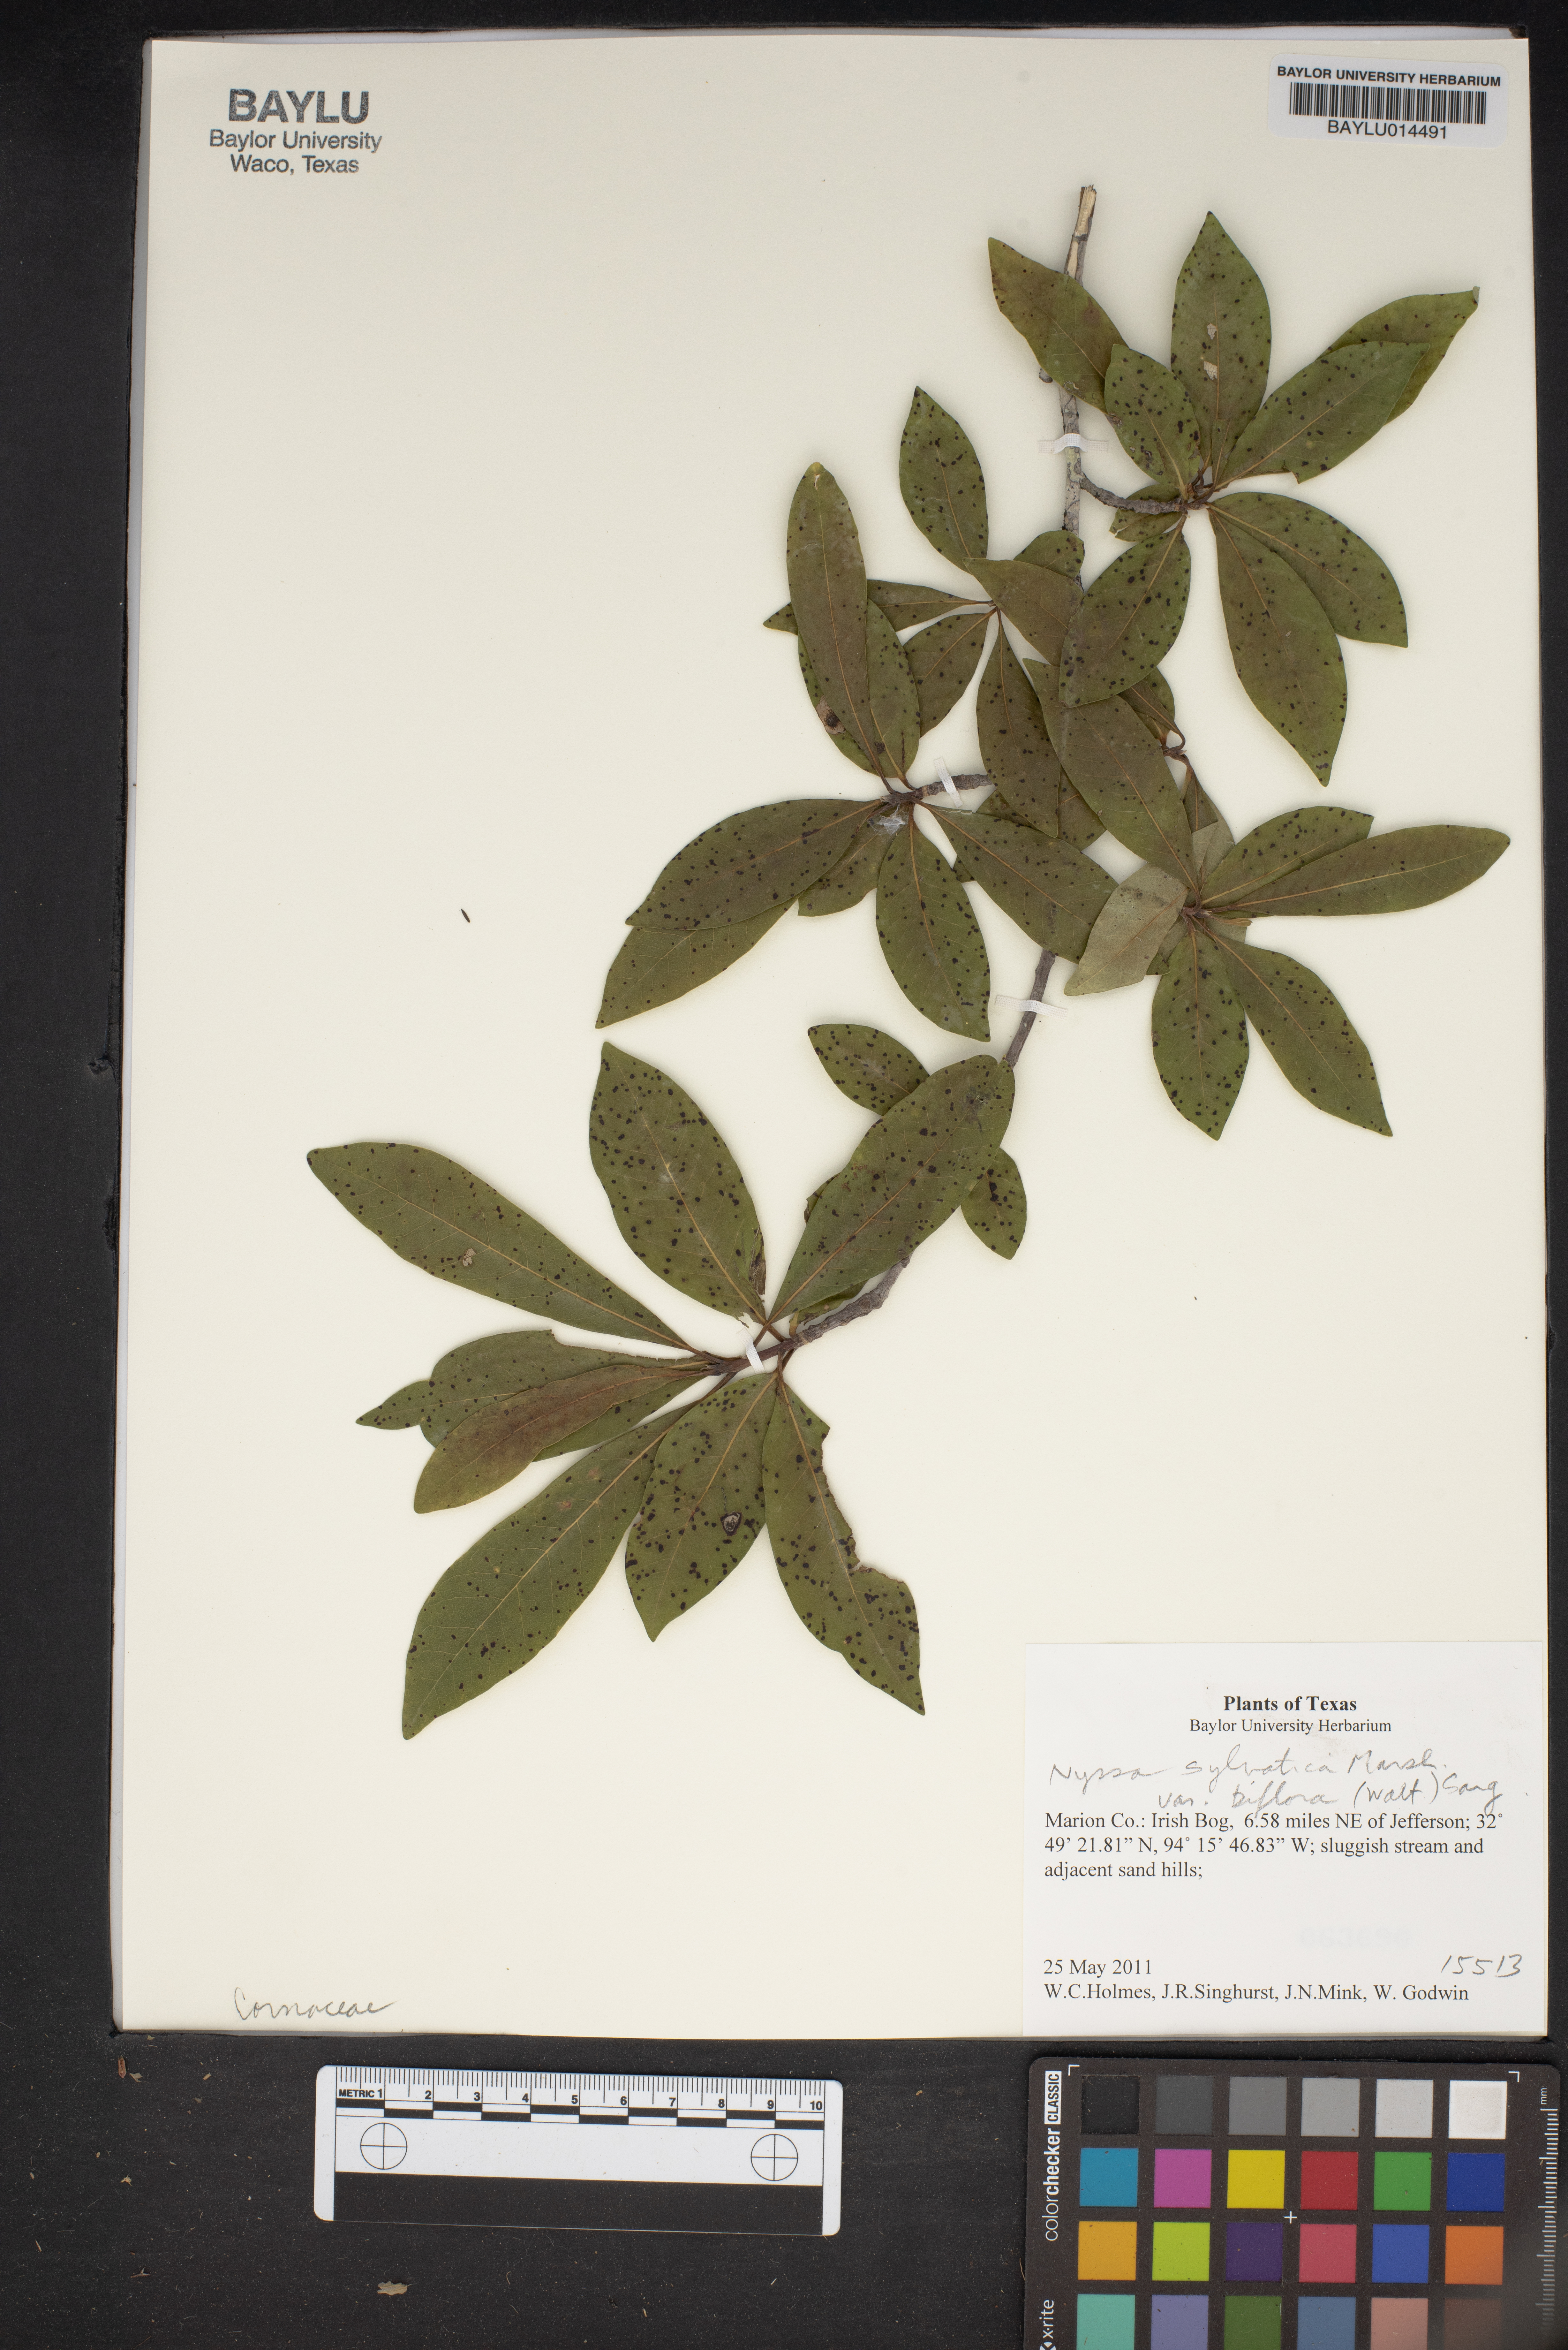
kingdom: Plantae
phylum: Tracheophyta
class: Magnoliopsida
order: Cornales
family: Nyssaceae
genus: Nyssa
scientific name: Nyssa sylvatica
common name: Black tupelo
